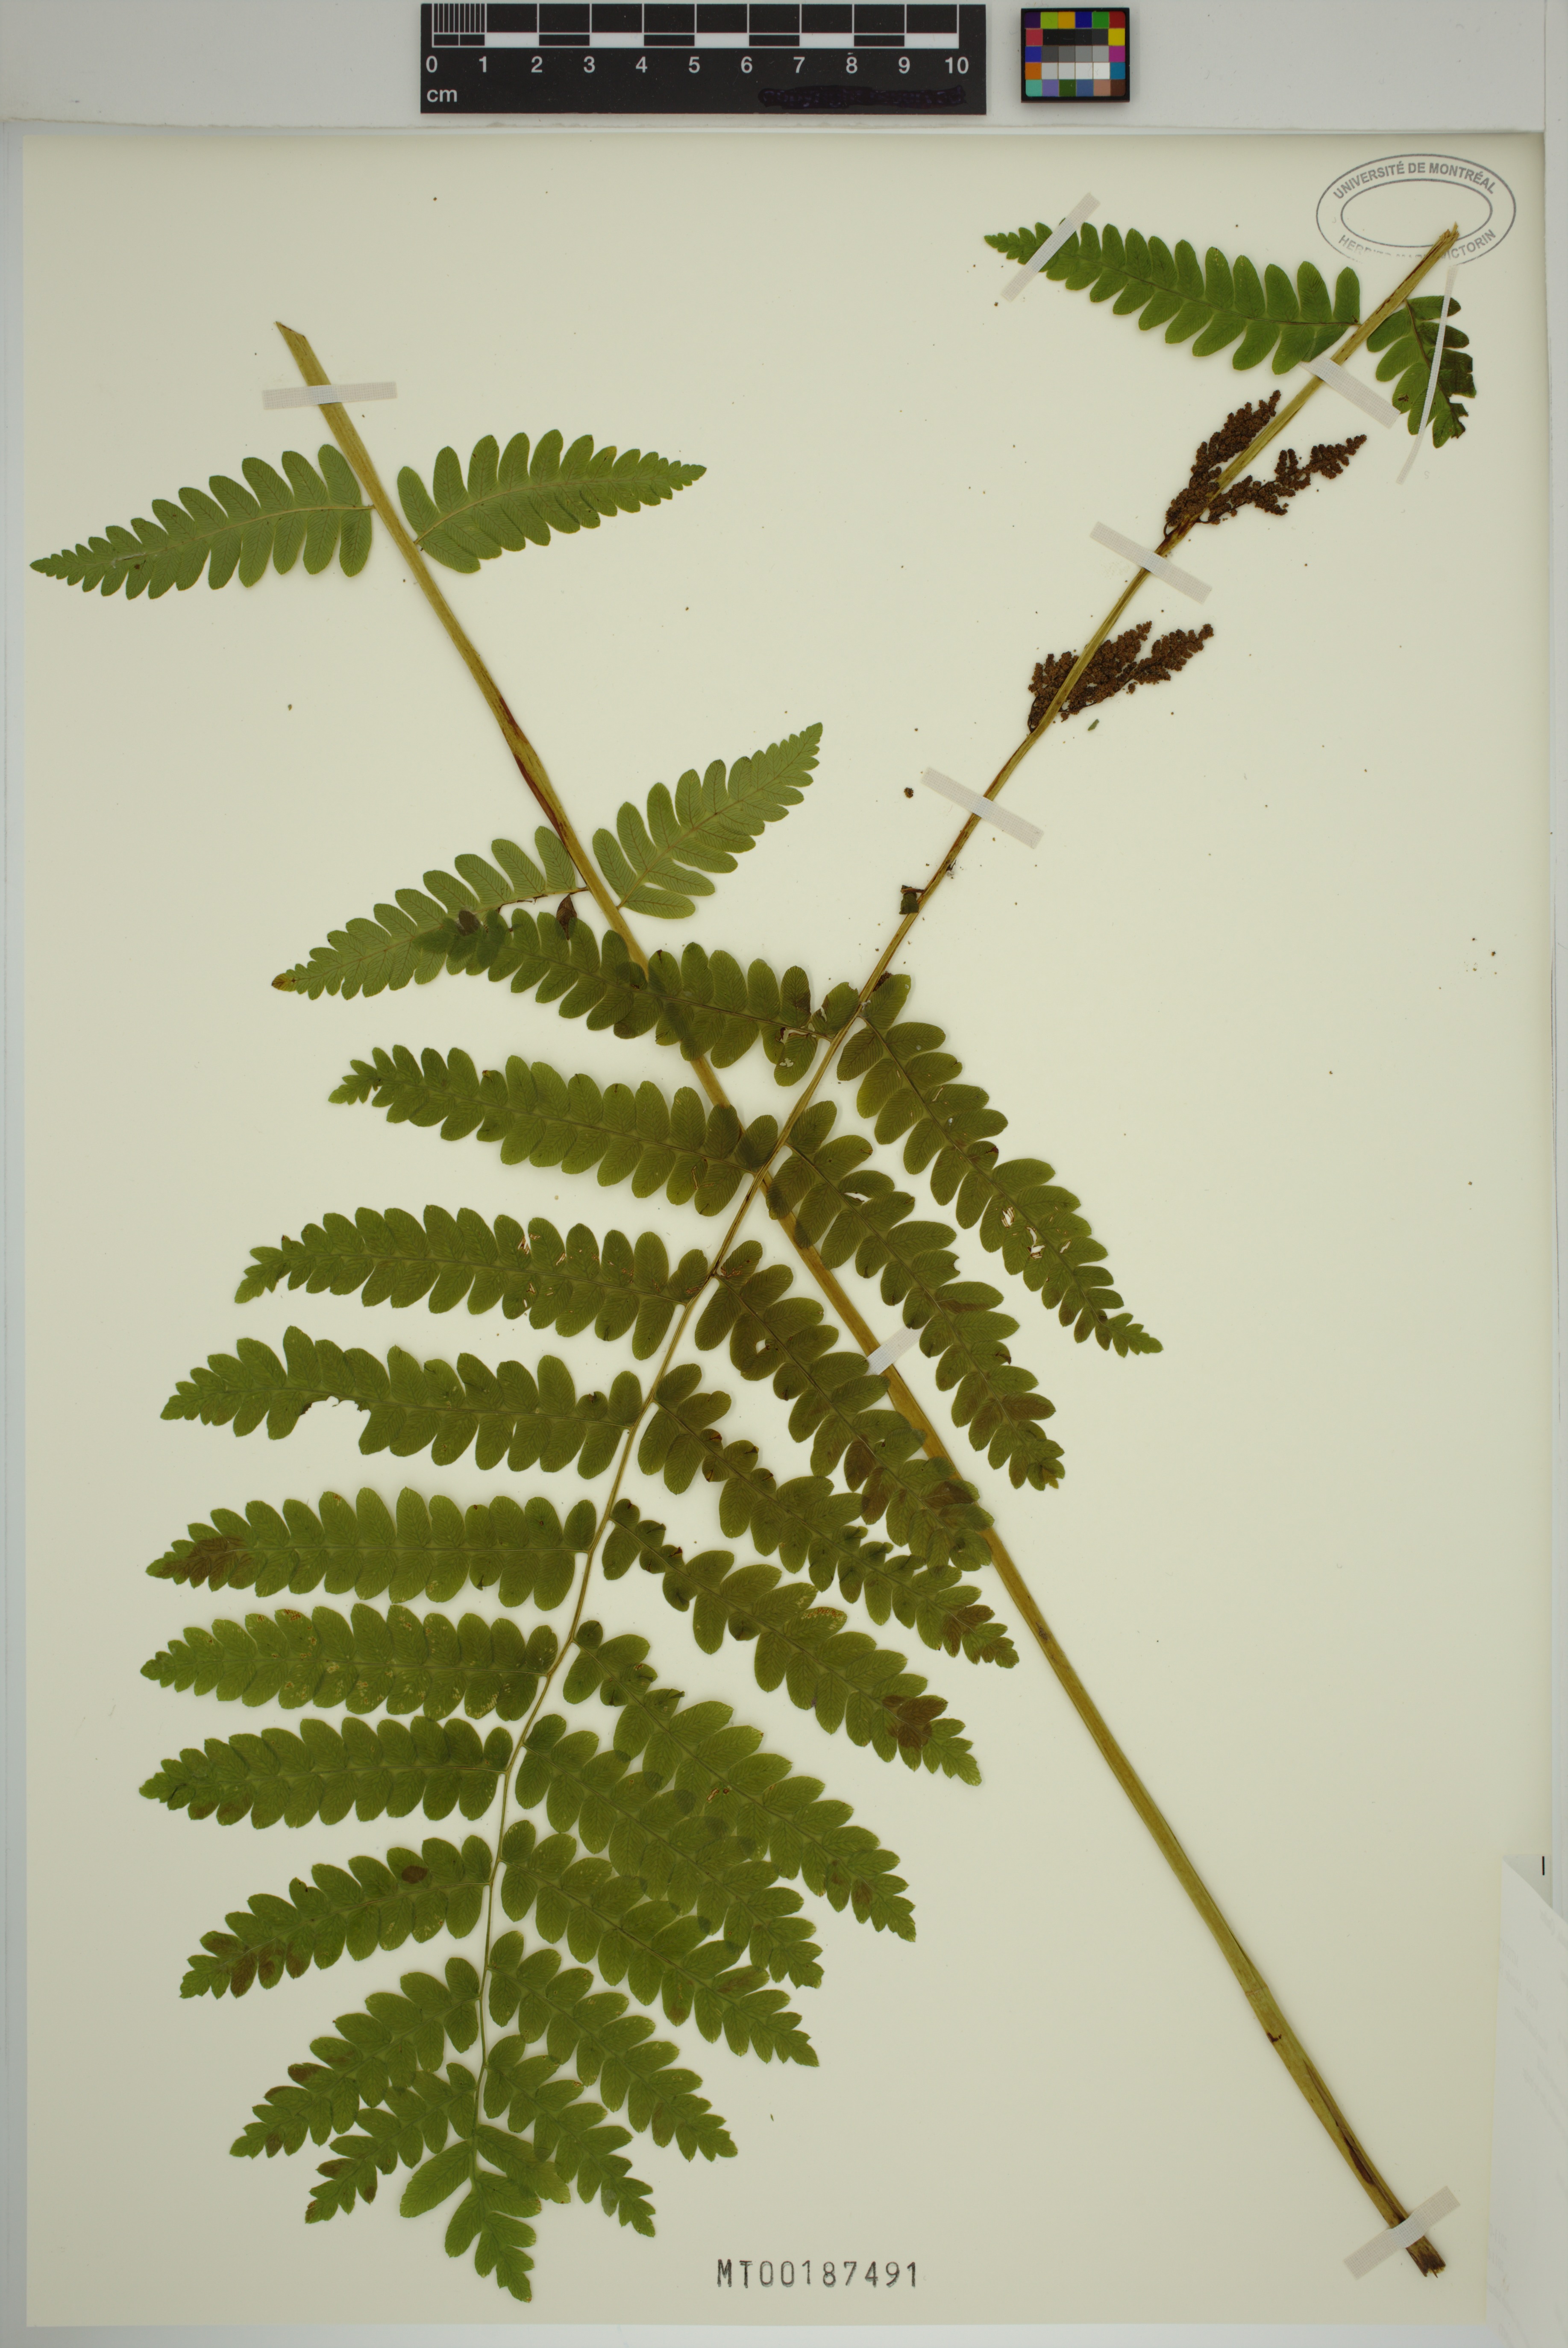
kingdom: Plantae
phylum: Tracheophyta
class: Polypodiopsida
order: Osmundales
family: Osmundaceae
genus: Claytosmunda
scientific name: Claytosmunda claytoniana
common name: Clayton's fern
